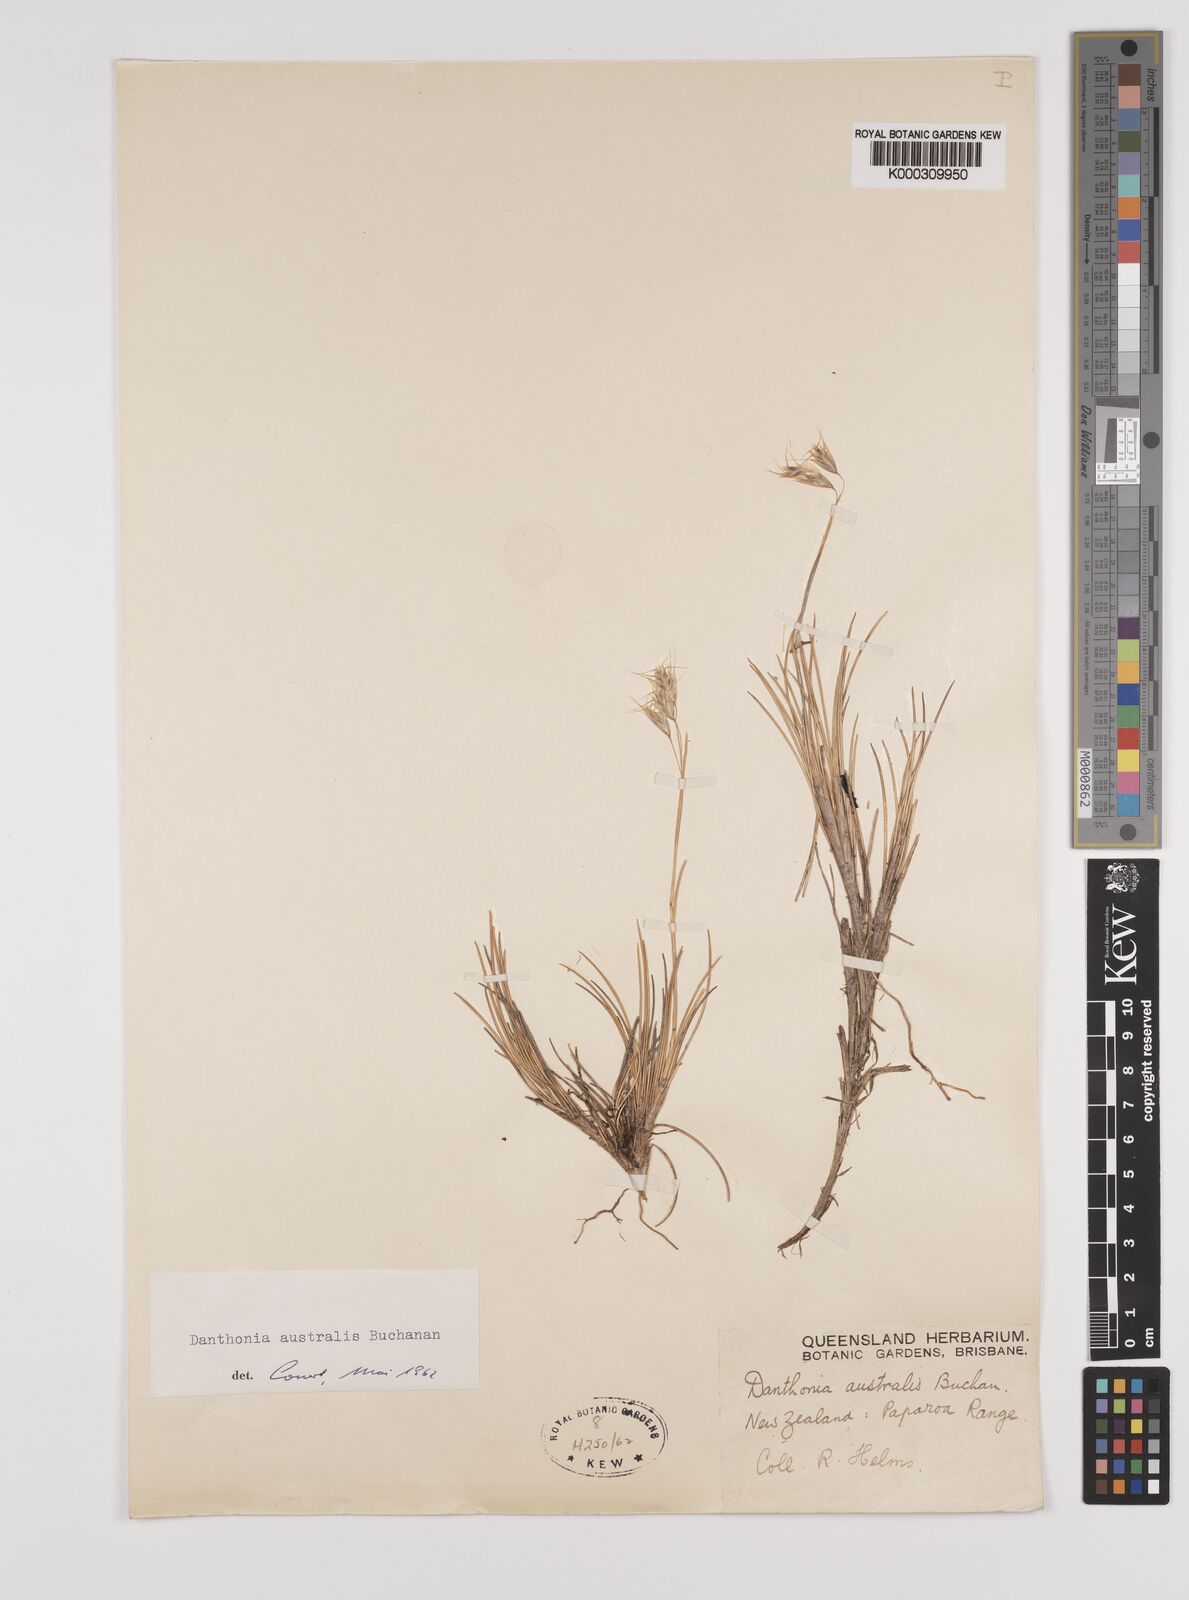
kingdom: Plantae
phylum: Tracheophyta
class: Liliopsida
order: Poales
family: Poaceae
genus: Chionochloa
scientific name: Chionochloa australis
